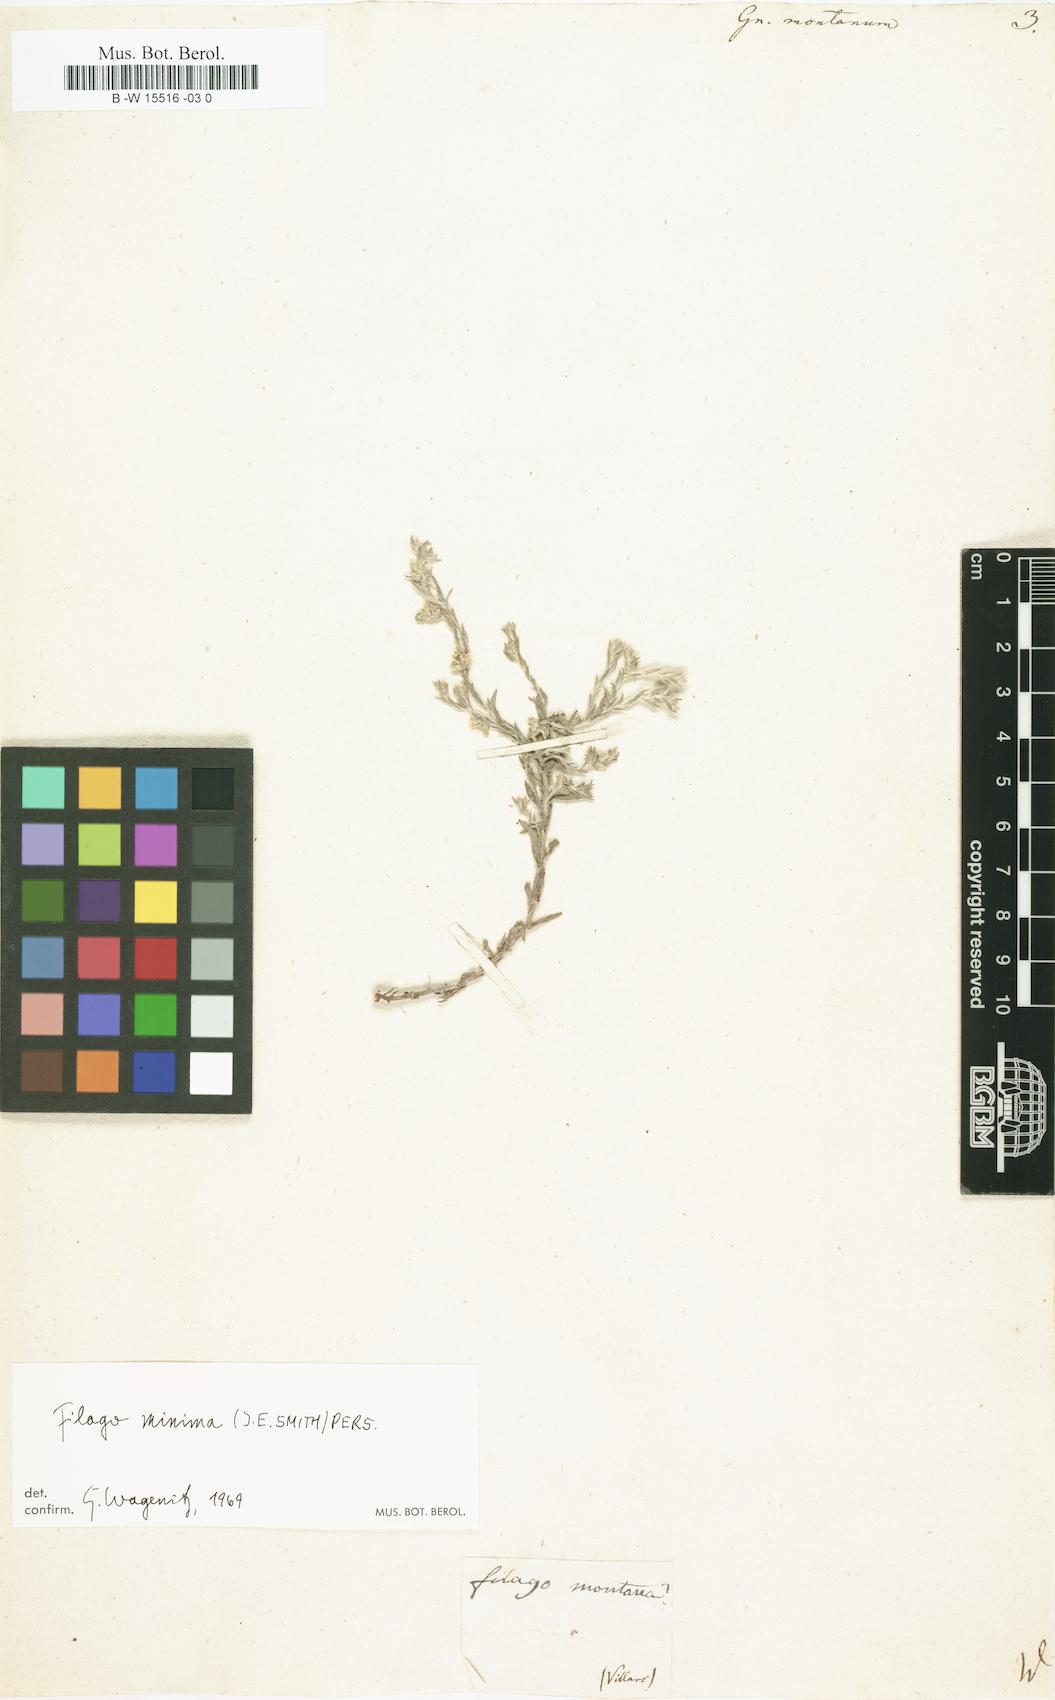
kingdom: Plantae
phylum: Tracheophyta
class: Magnoliopsida
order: Asterales
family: Asteraceae
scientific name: Asteraceae
